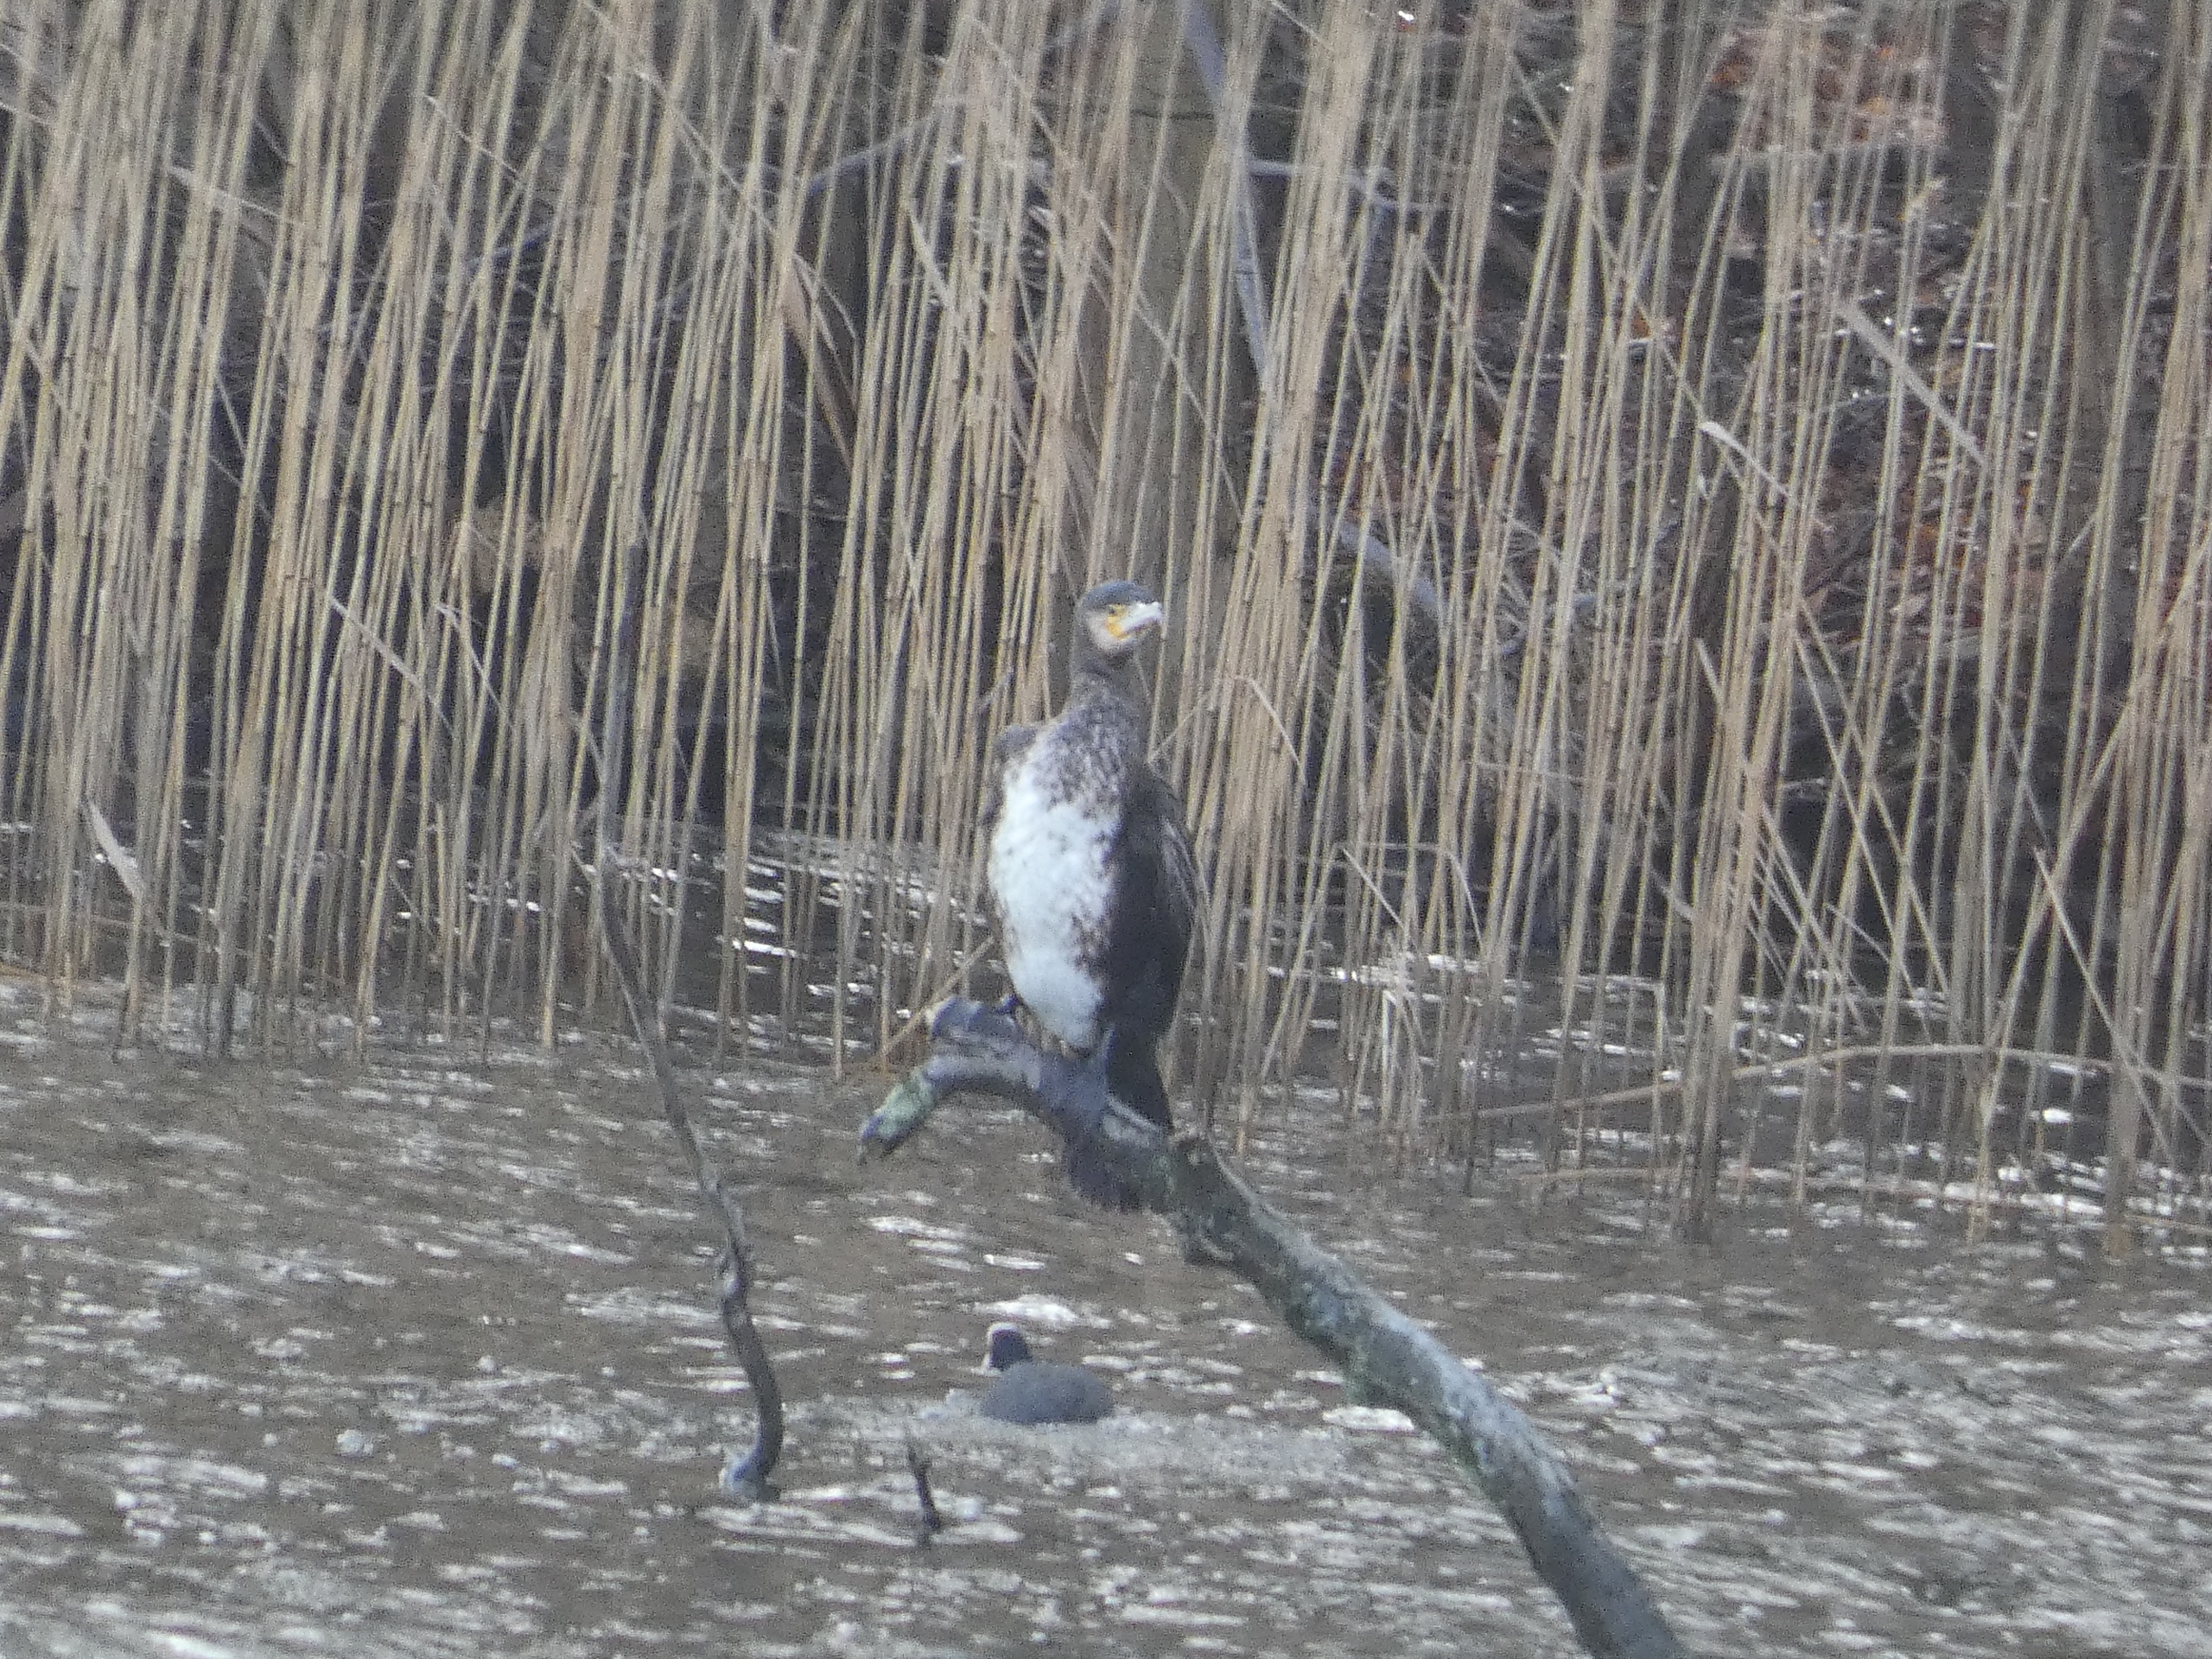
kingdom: Animalia
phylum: Chordata
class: Aves
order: Suliformes
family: Phalacrocoracidae
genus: Phalacrocorax
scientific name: Phalacrocorax carbo
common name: Skarv
